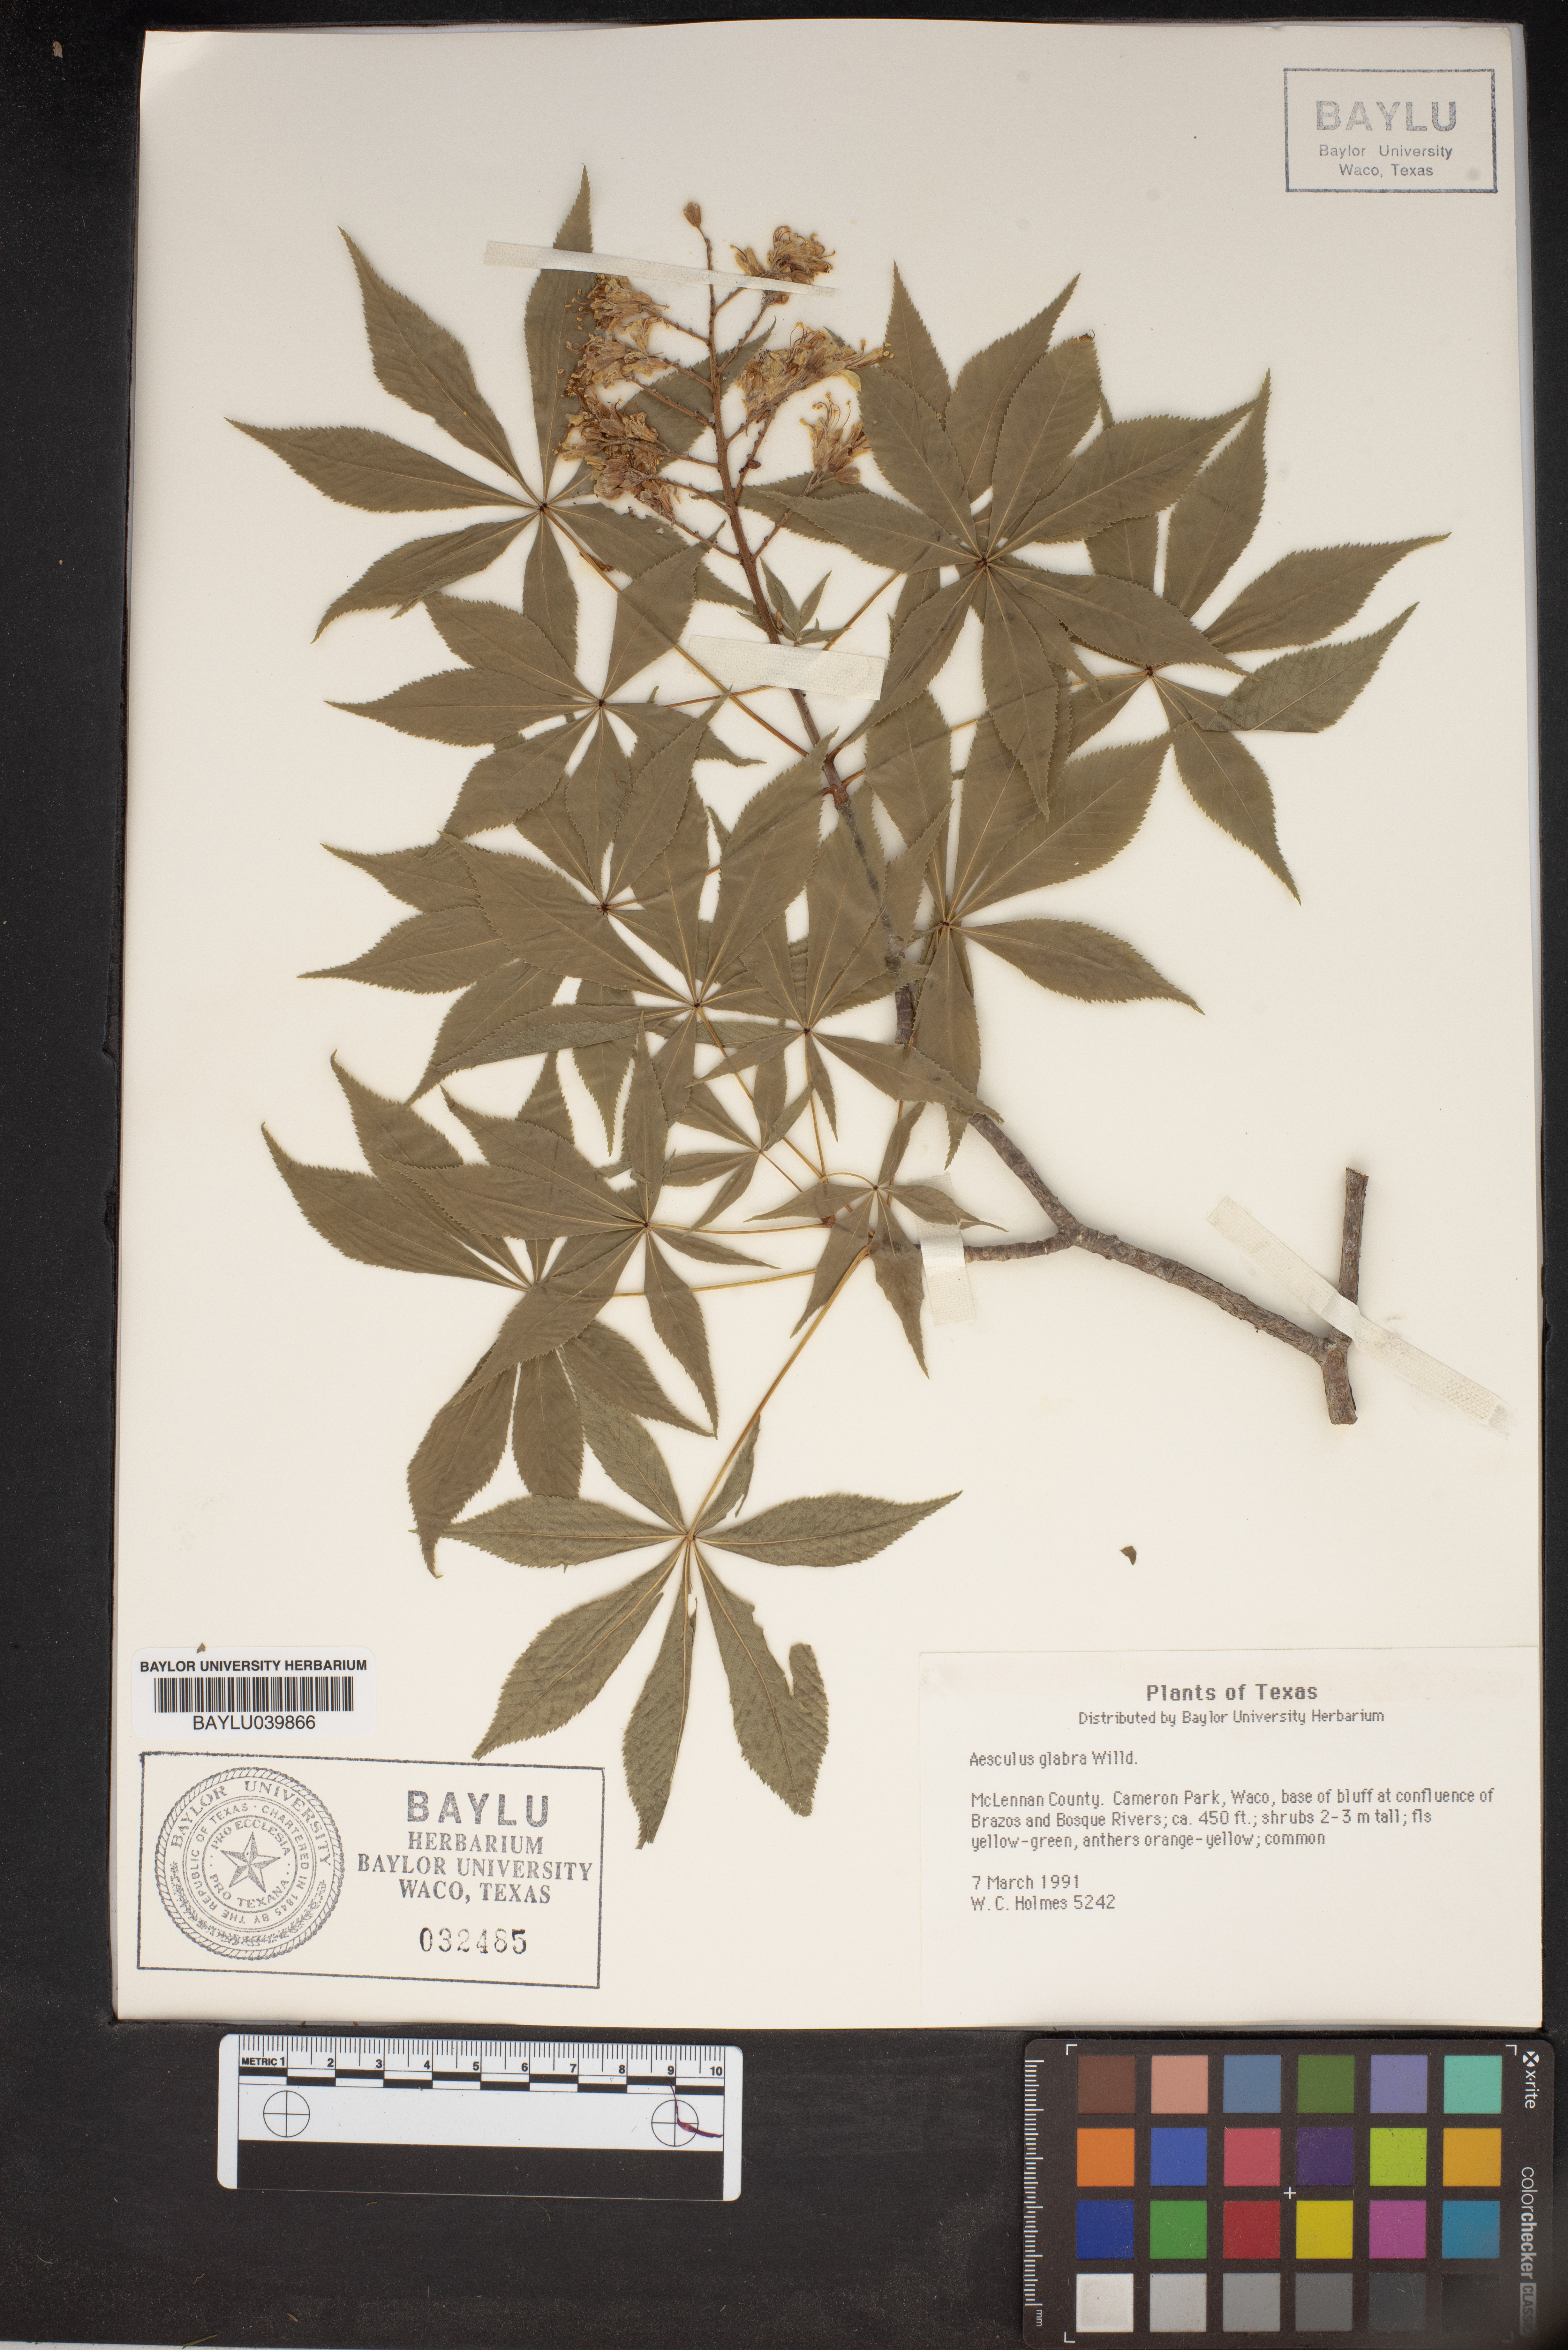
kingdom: Plantae
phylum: Tracheophyta
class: Magnoliopsida
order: Sapindales
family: Sapindaceae
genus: Aesculus
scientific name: Aesculus glabra
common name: Ohio buckeye
